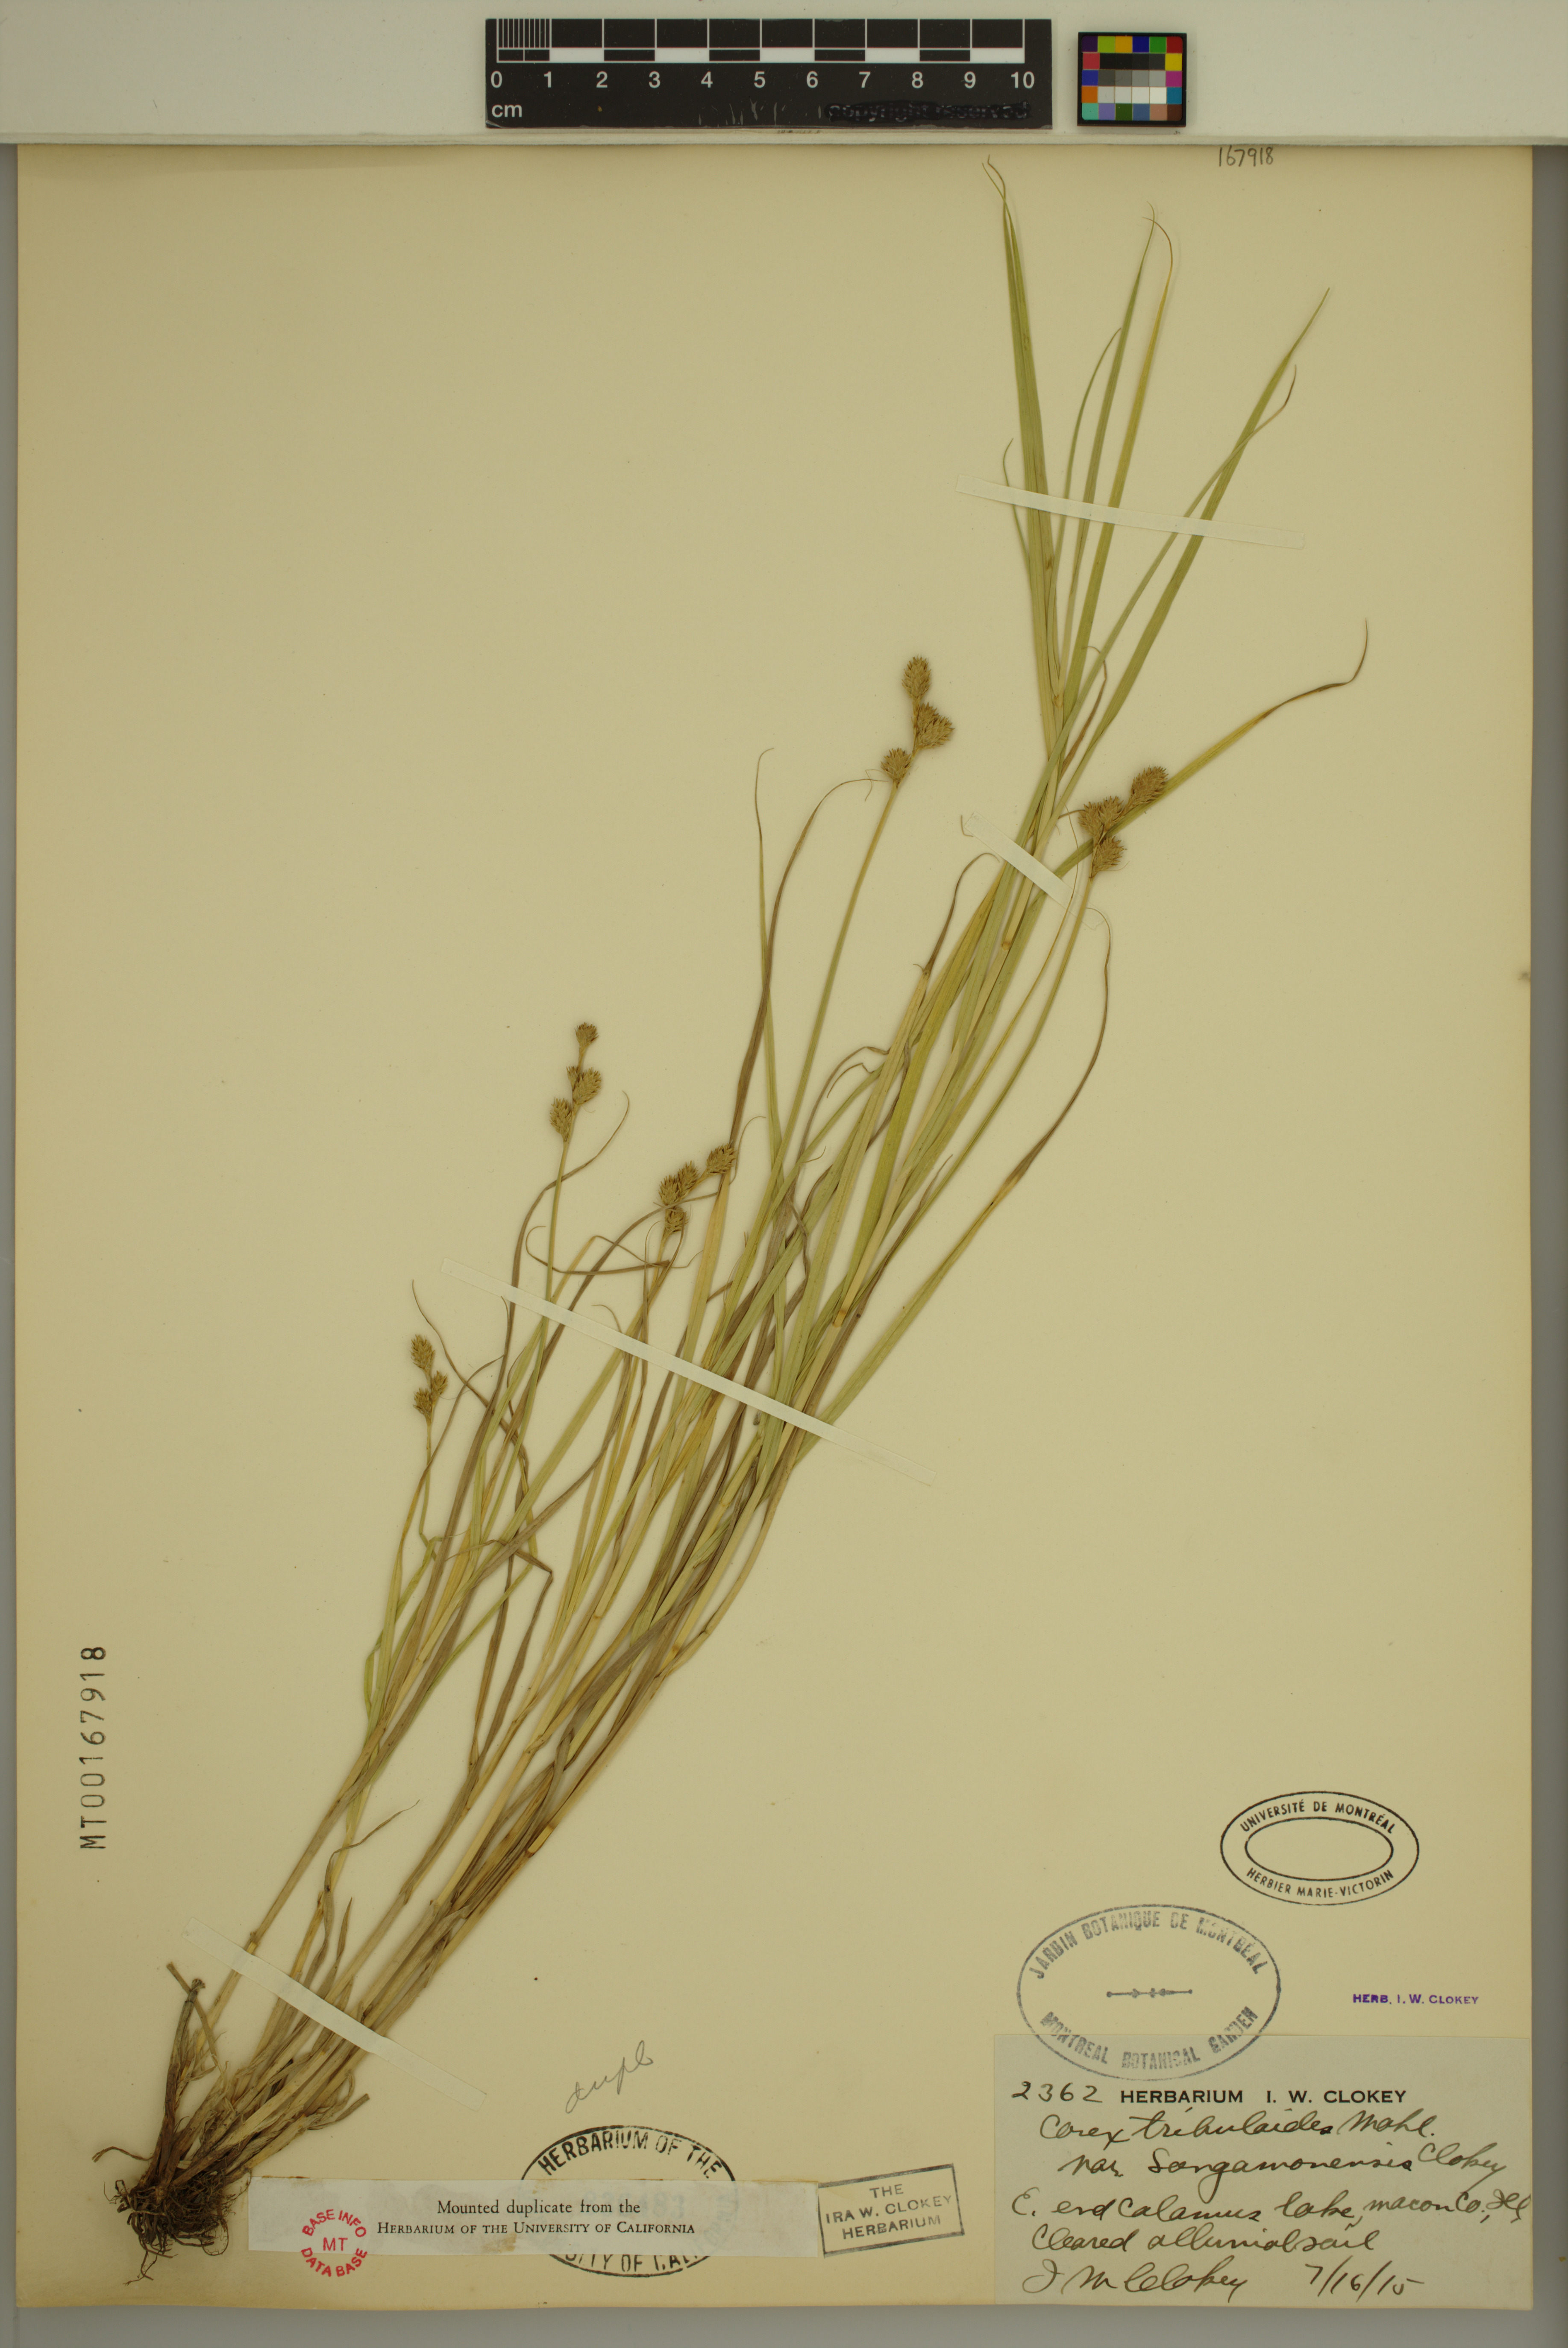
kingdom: Plantae
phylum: Tracheophyta
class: Liliopsida
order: Poales
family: Cyperaceae
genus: Carex
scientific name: Carex tribuloides
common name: Blunt broom sedge
